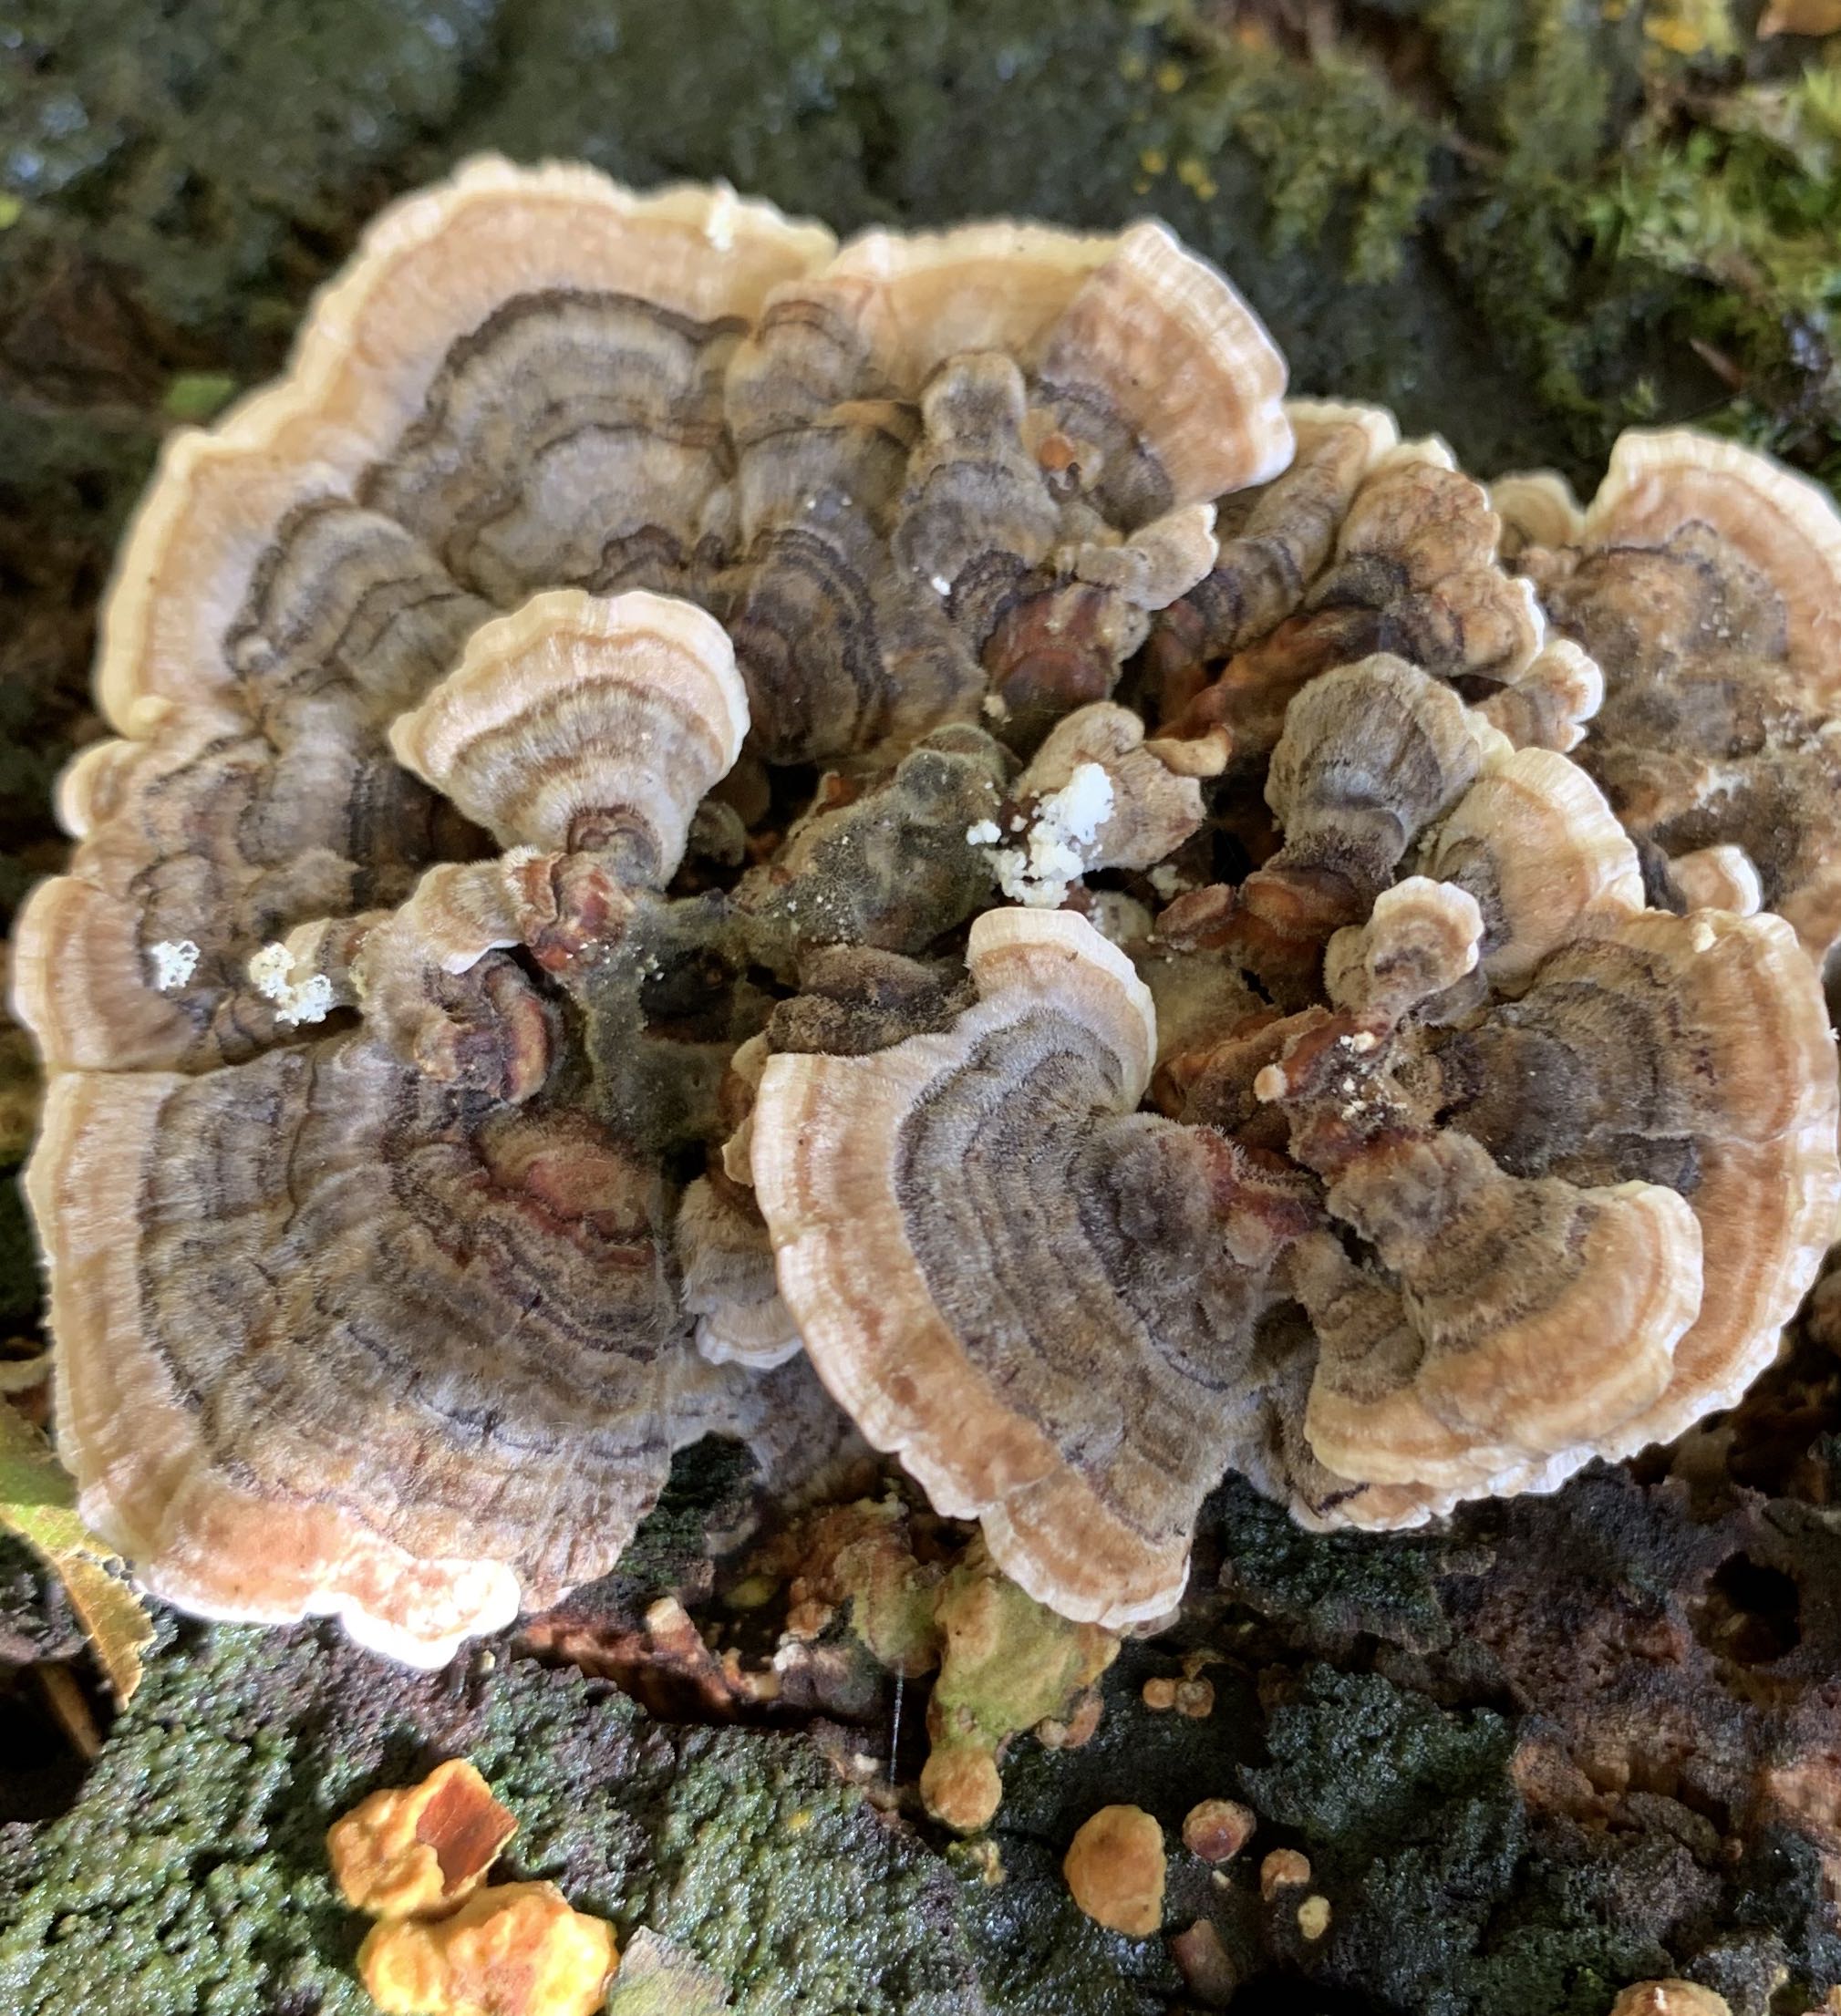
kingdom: Fungi
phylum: Basidiomycota
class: Agaricomycetes
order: Polyporales
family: Polyporaceae
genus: Trametes
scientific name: Trametes versicolor
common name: broget læderporesvamp
